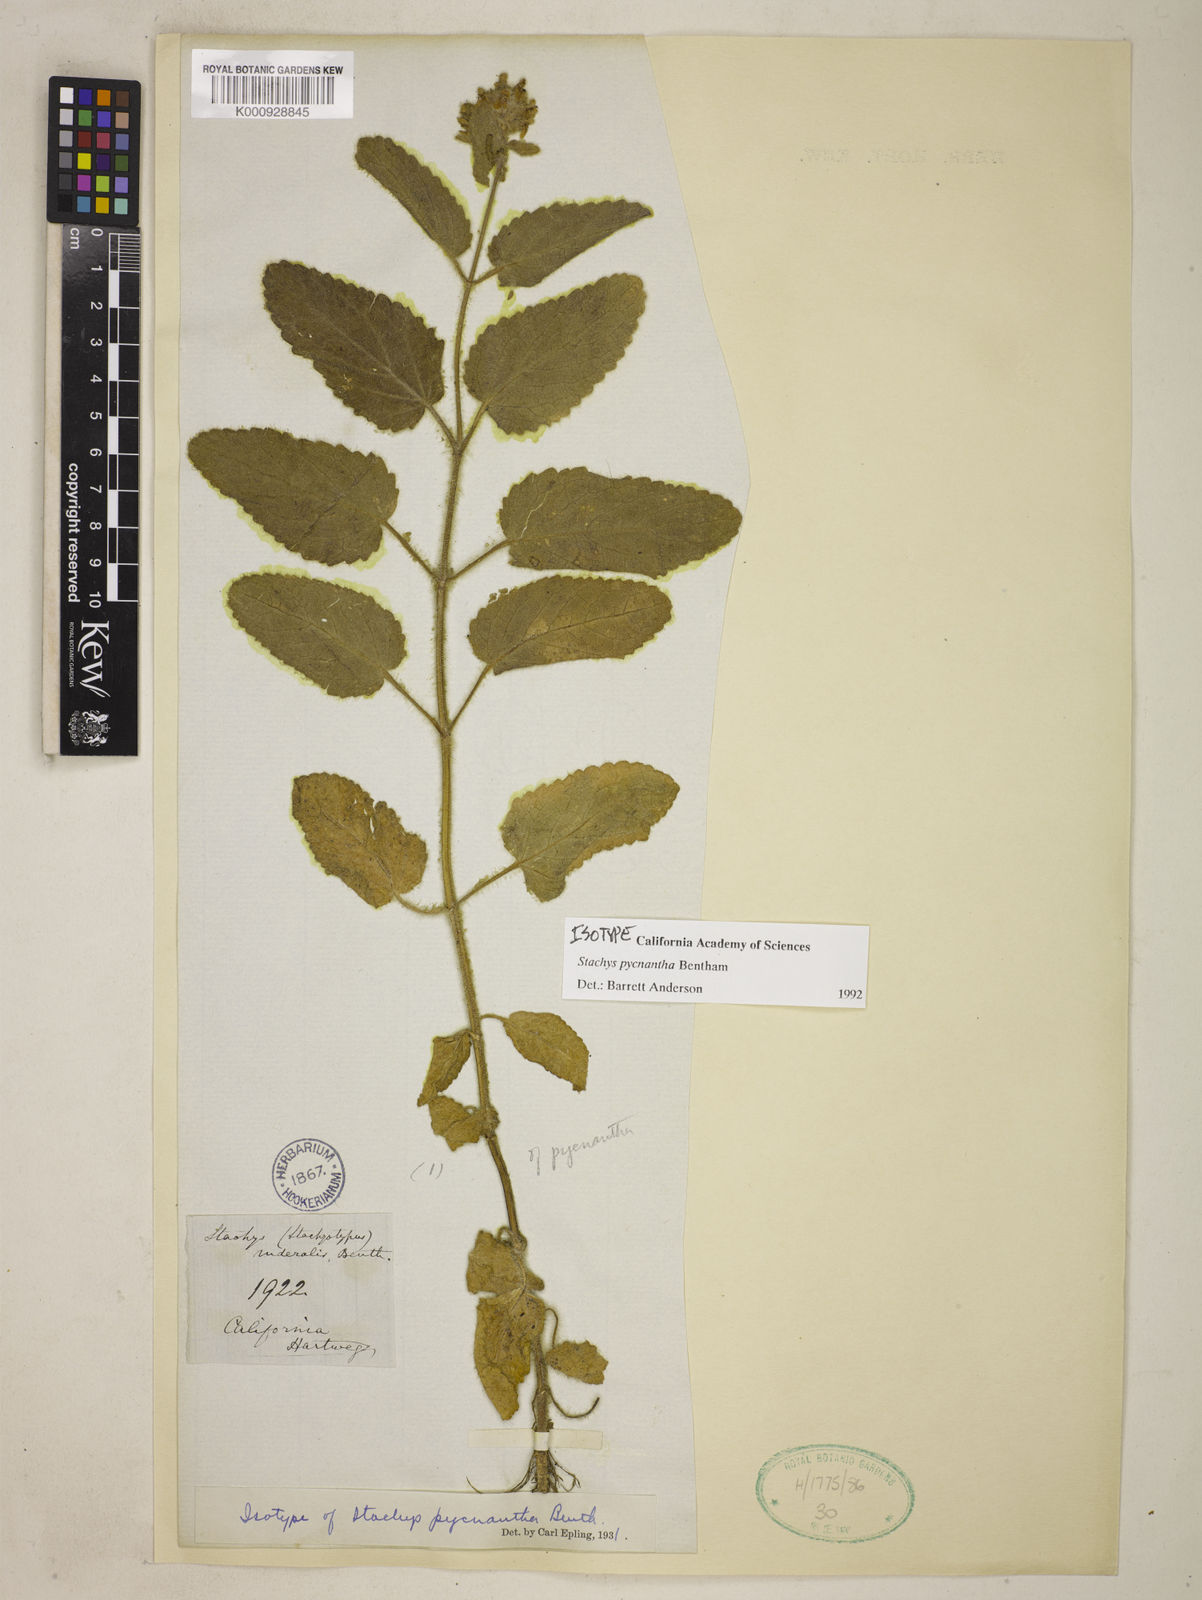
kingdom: Plantae
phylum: Tracheophyta
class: Magnoliopsida
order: Lamiales
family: Lamiaceae
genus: Stachys
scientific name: Stachys pycnantha
